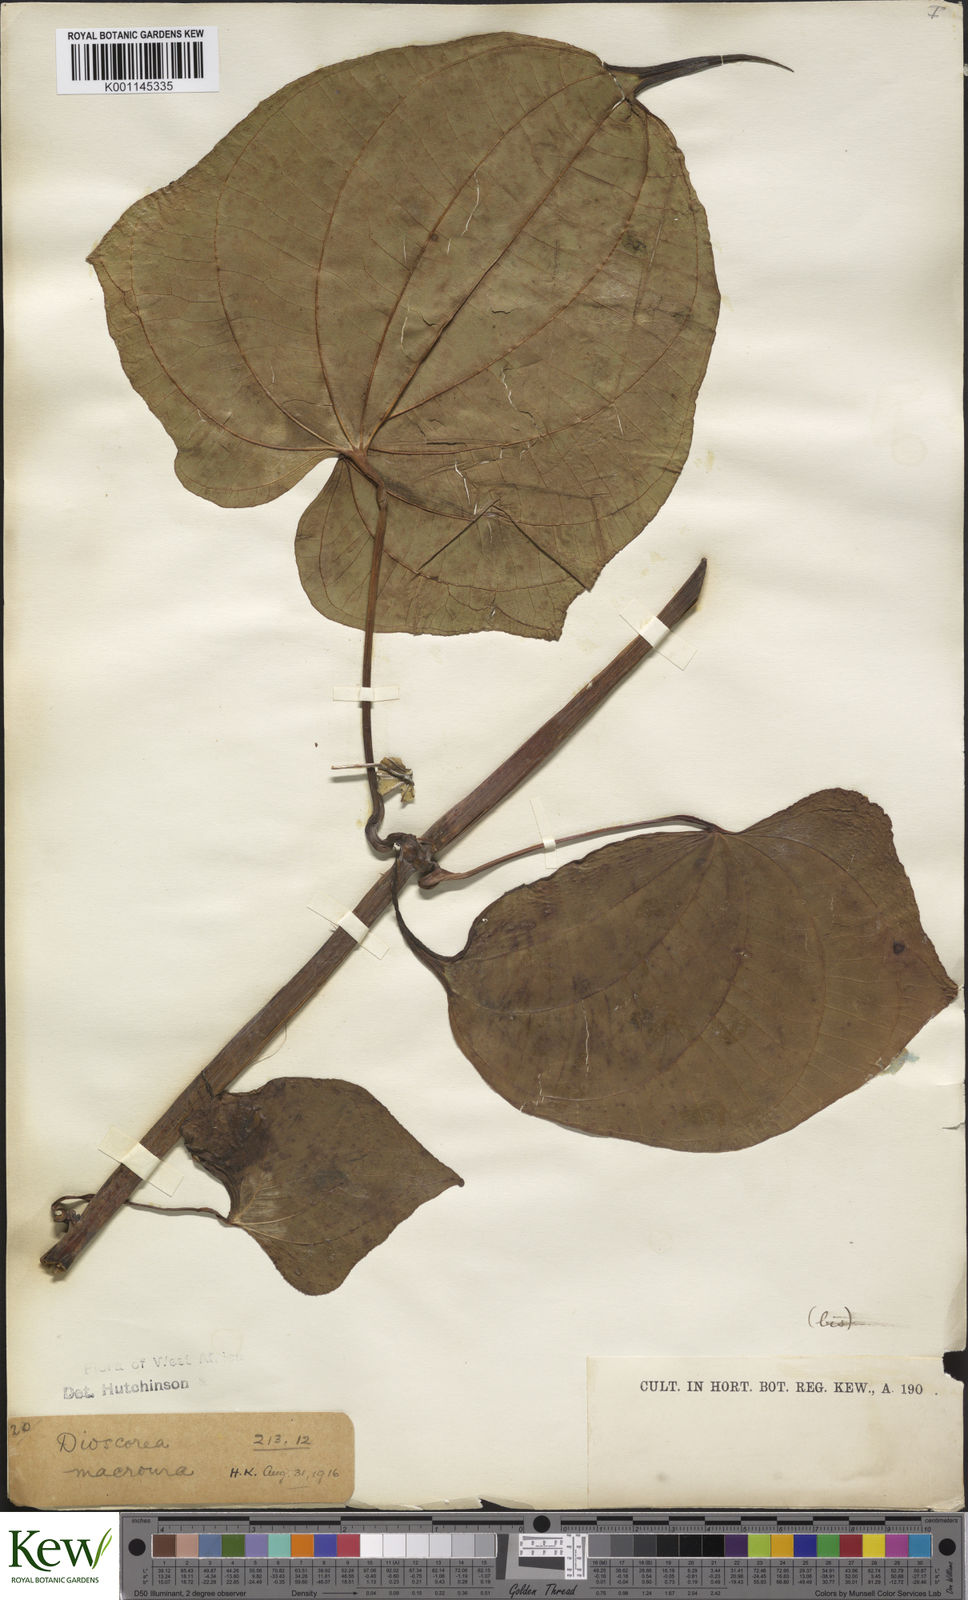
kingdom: Plantae
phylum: Tracheophyta
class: Liliopsida
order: Dioscoreales
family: Dioscoreaceae
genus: Dioscorea
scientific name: Dioscorea sansibarensis
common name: Zanzibar yam
